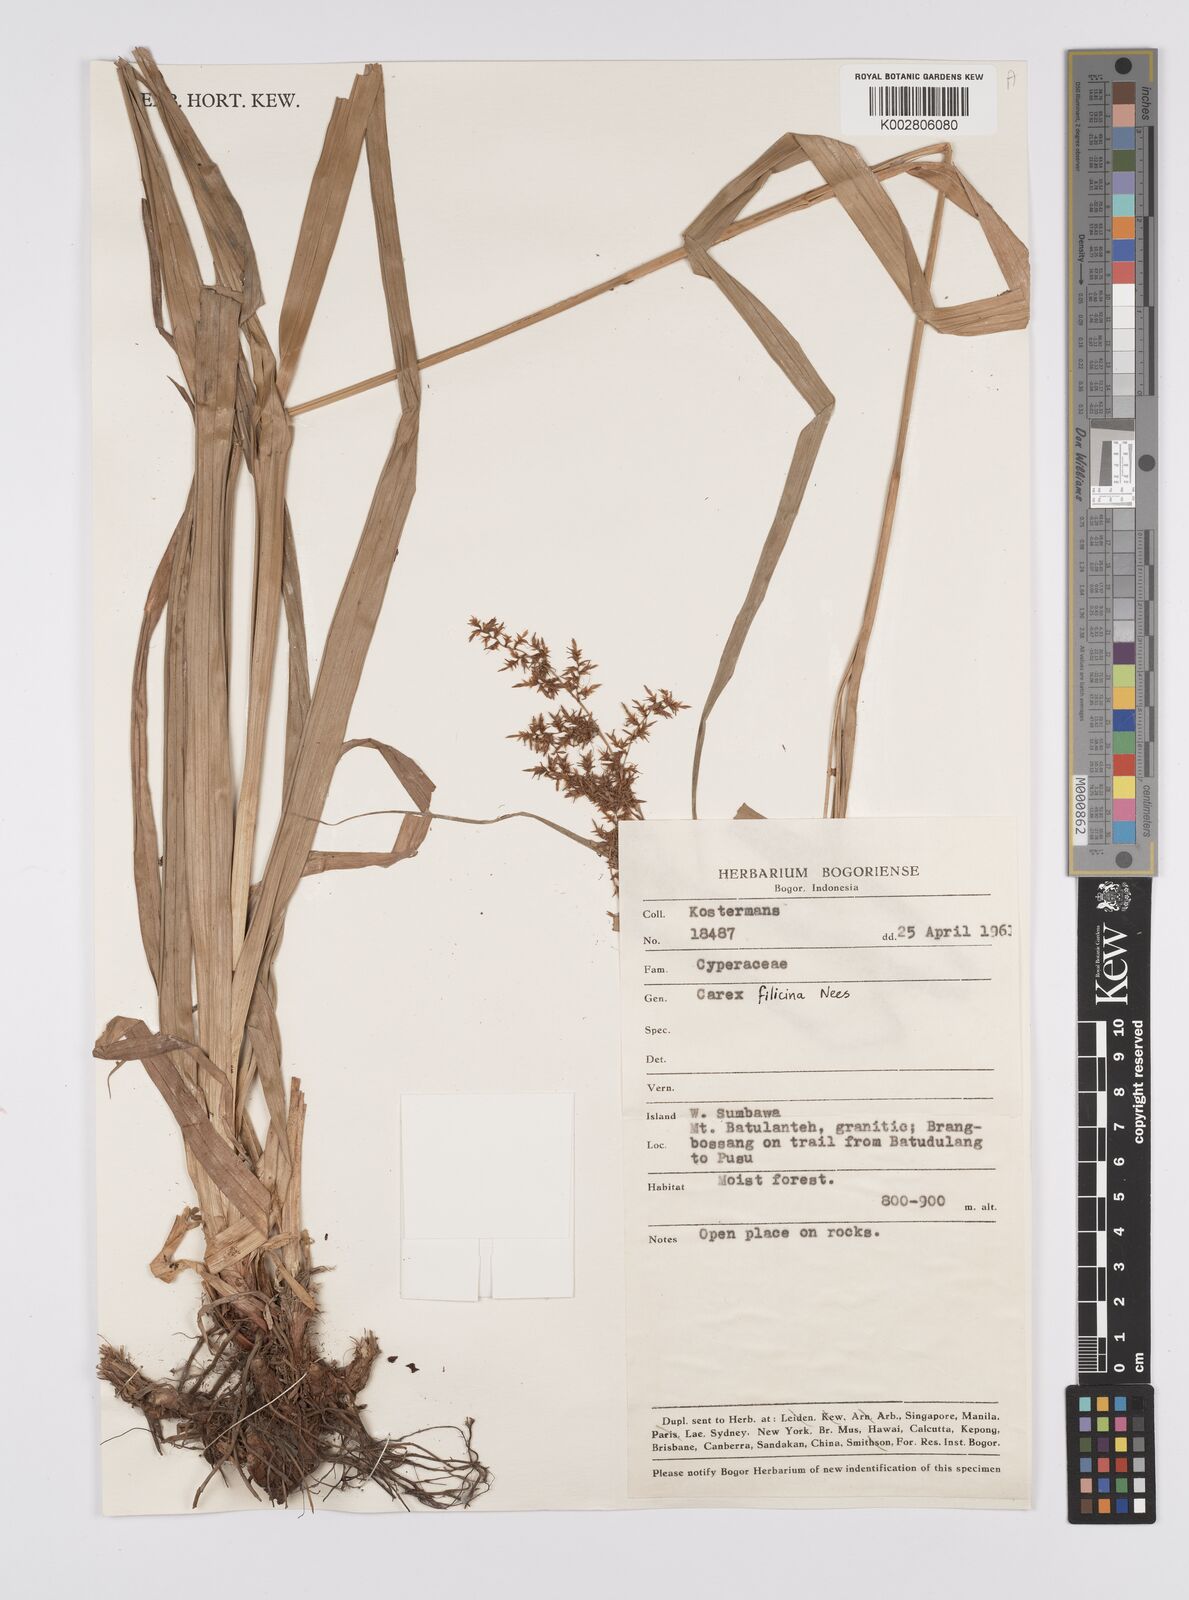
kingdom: Plantae
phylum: Tracheophyta
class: Liliopsida
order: Poales
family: Cyperaceae
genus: Carex
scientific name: Carex filicina
